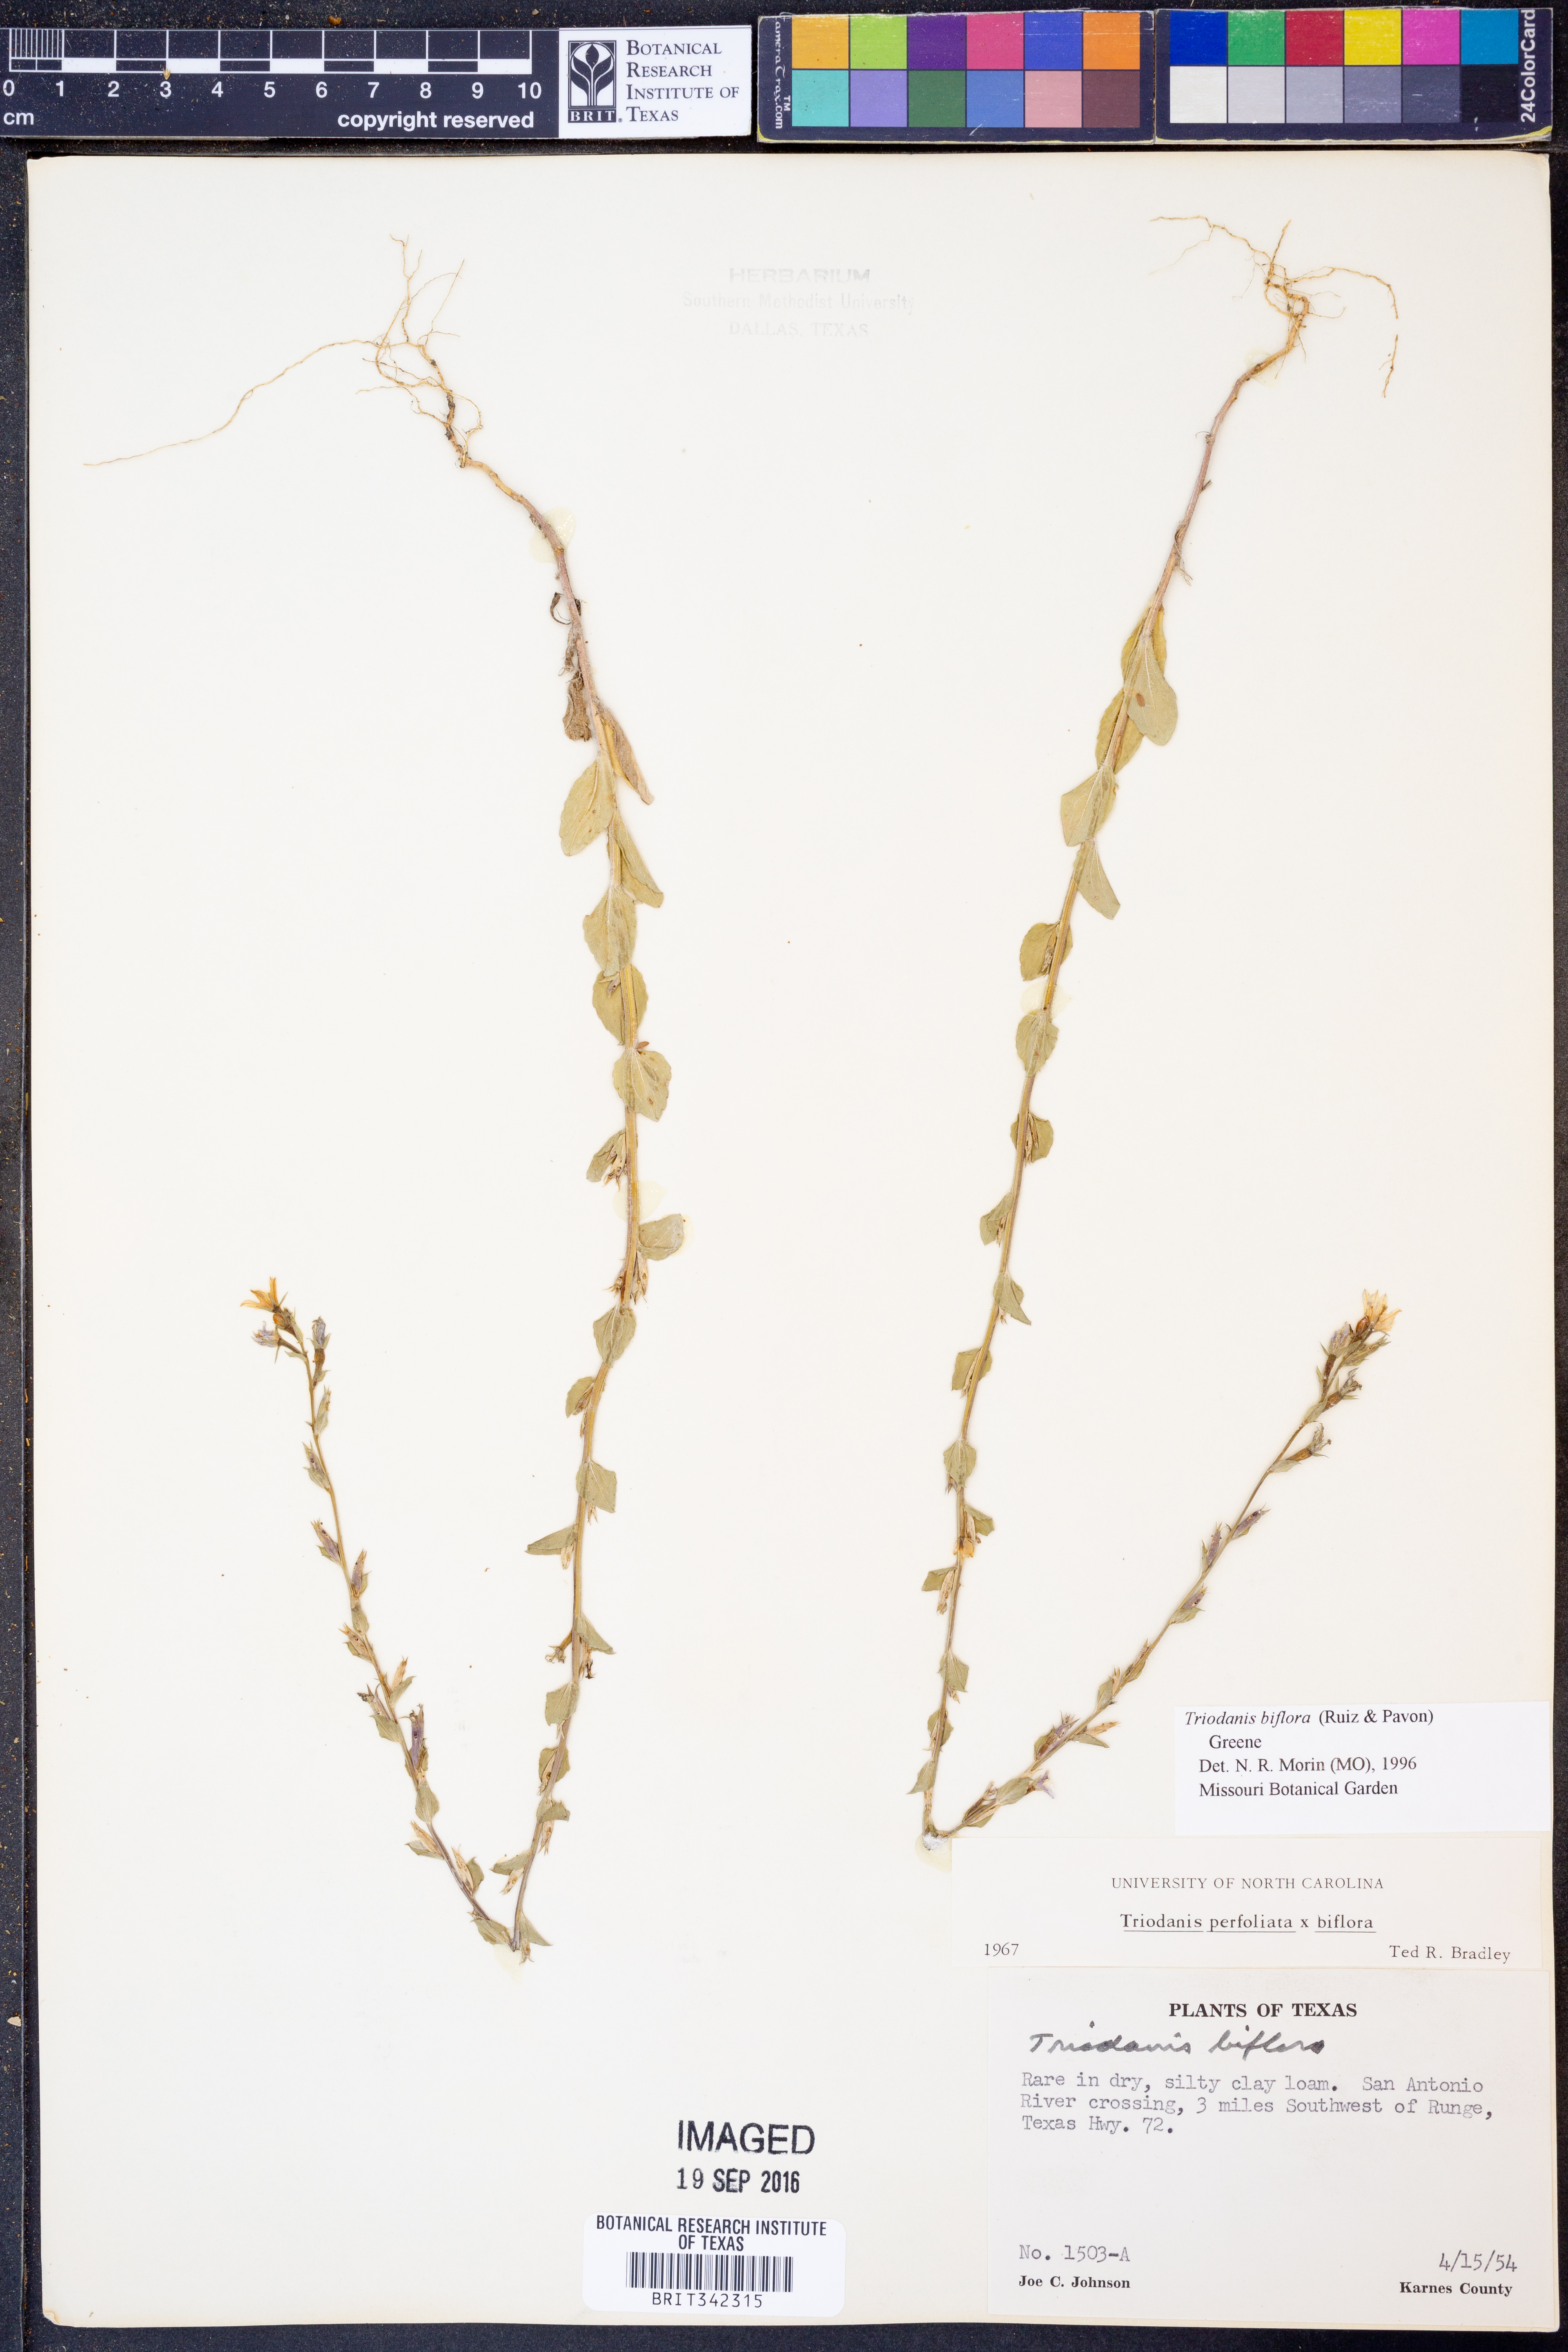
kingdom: Plantae
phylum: Tracheophyta
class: Magnoliopsida
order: Asterales
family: Campanulaceae
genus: Triodanis
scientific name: Triodanis perfoliata
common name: Clasping venus' looking-glass
